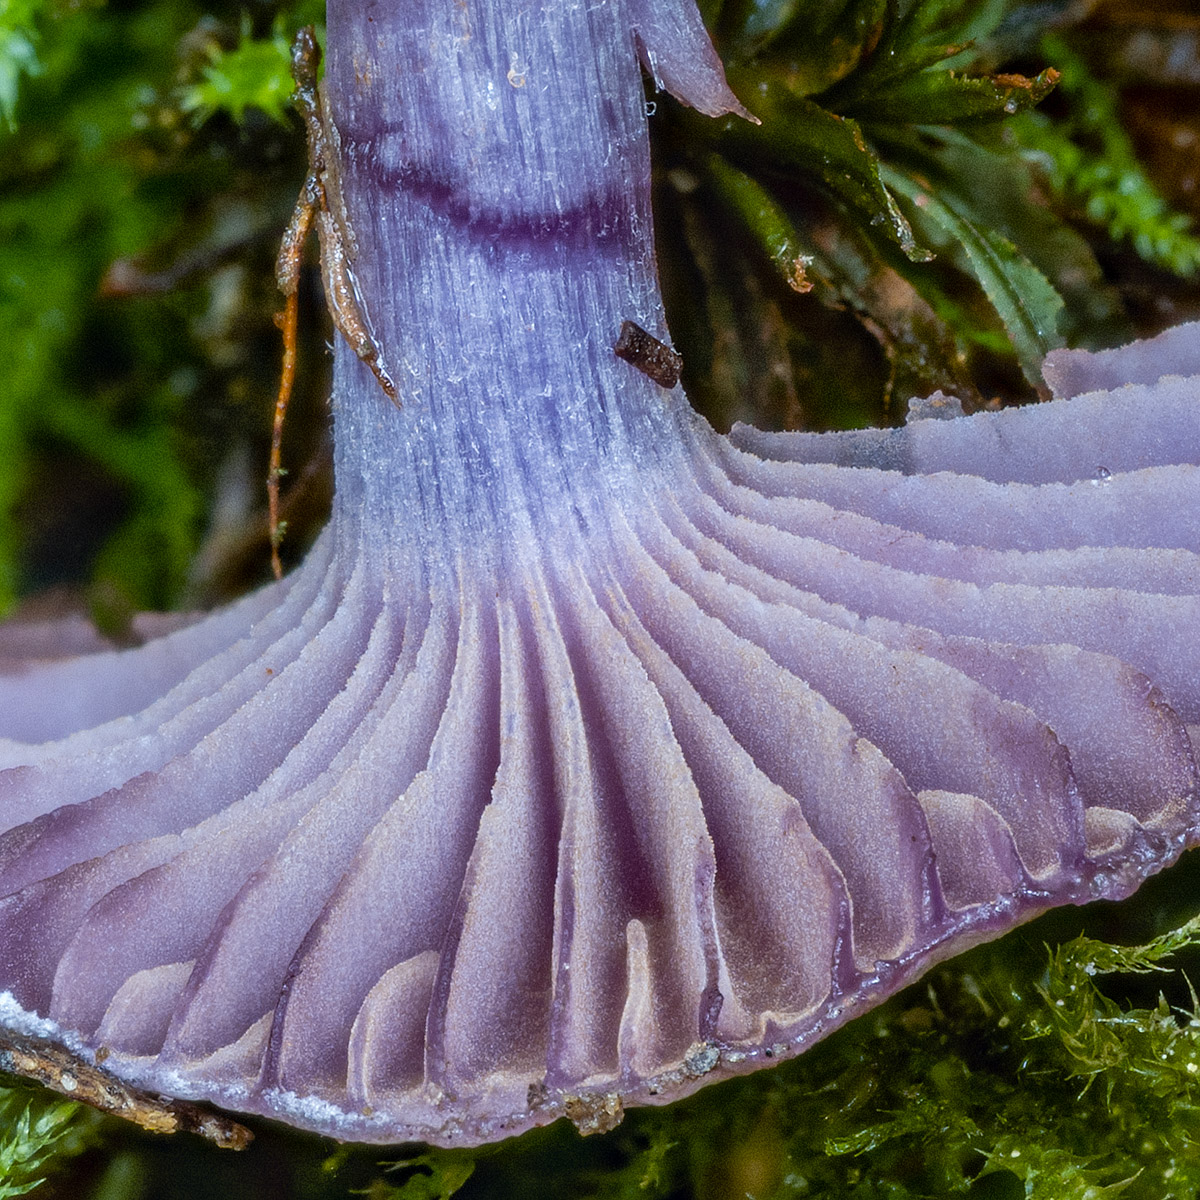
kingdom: Fungi
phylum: Basidiomycota
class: Agaricomycetes
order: Agaricales
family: Cortinariaceae
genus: Thaxterogaster
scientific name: Thaxterogaster subporphyropus
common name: ametyst-slørhat
